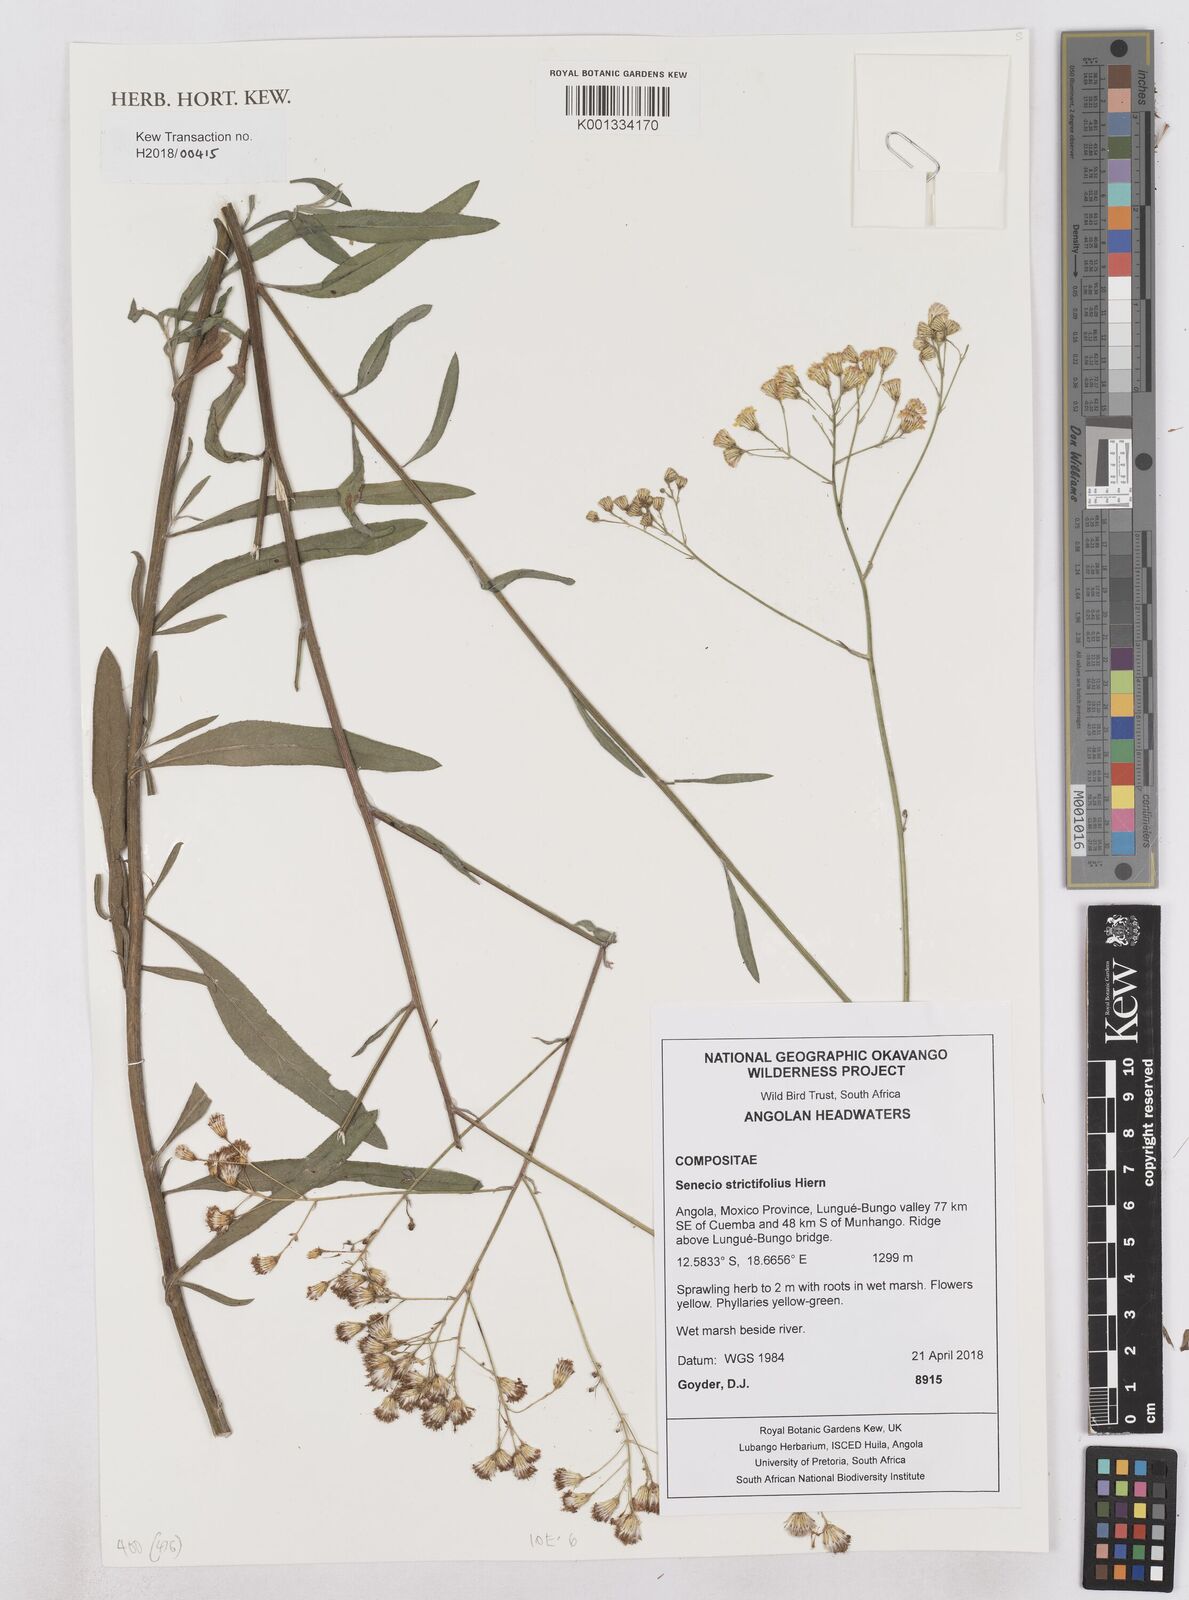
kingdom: Plantae
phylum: Tracheophyta
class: Magnoliopsida
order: Asterales
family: Asteraceae
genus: Senecio
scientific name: Senecio strictifolius
